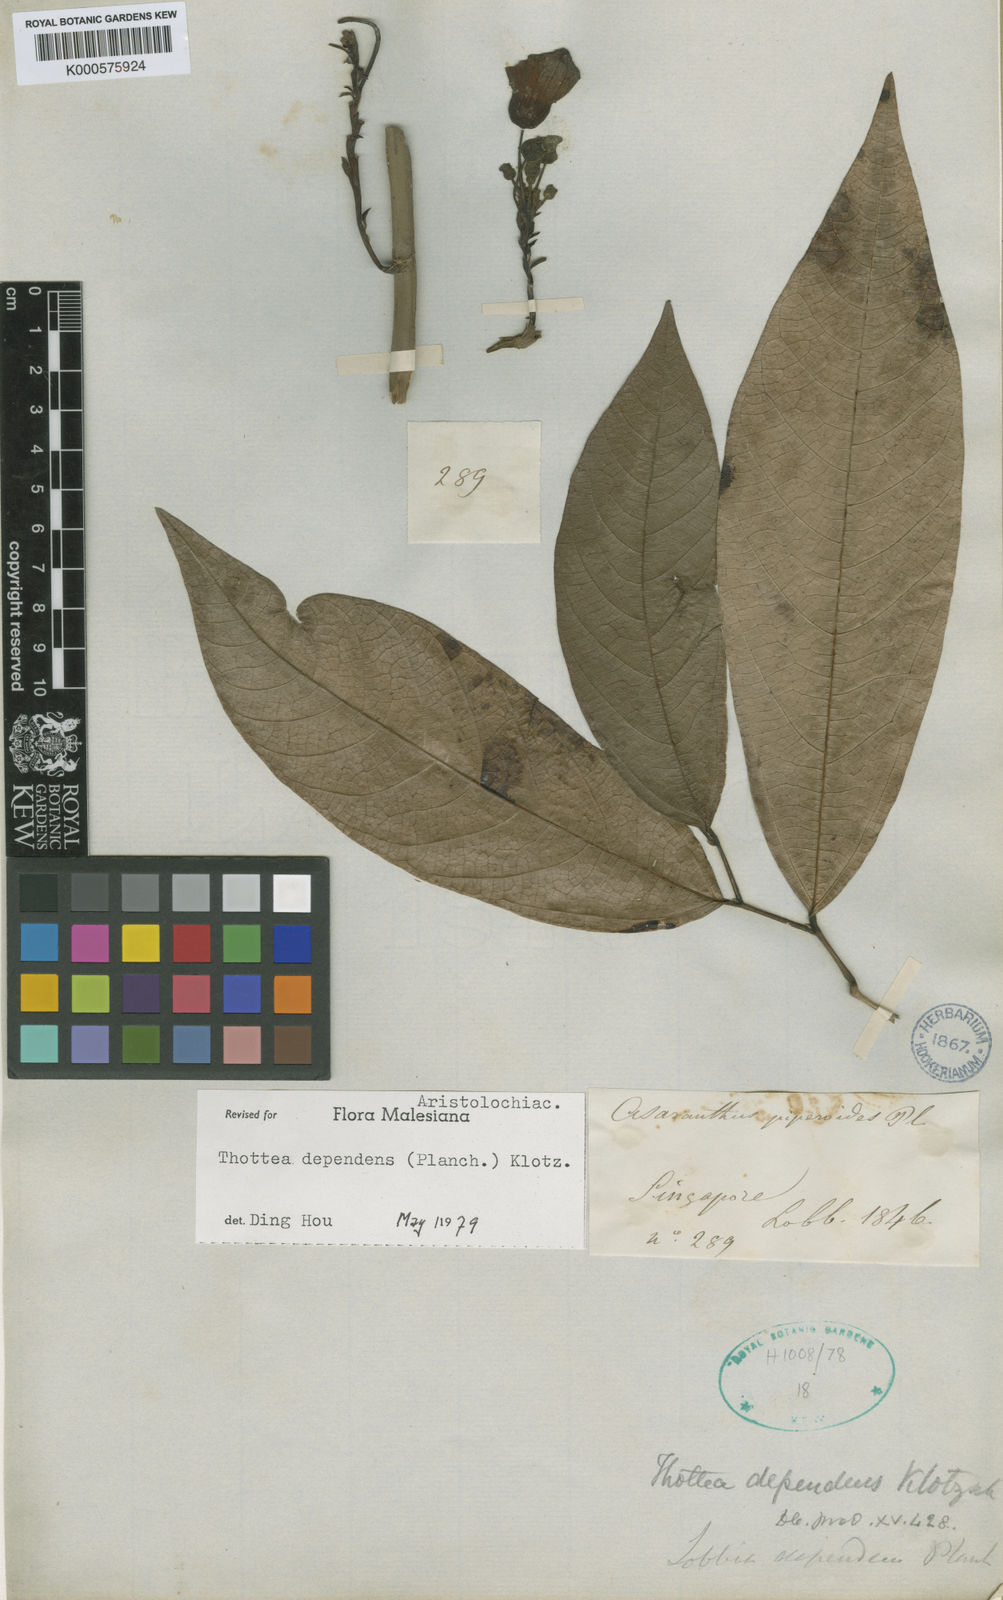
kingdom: Plantae
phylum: Tracheophyta
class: Magnoliopsida
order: Piperales
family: Aristolochiaceae
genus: Thottea
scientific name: Thottea dependens
